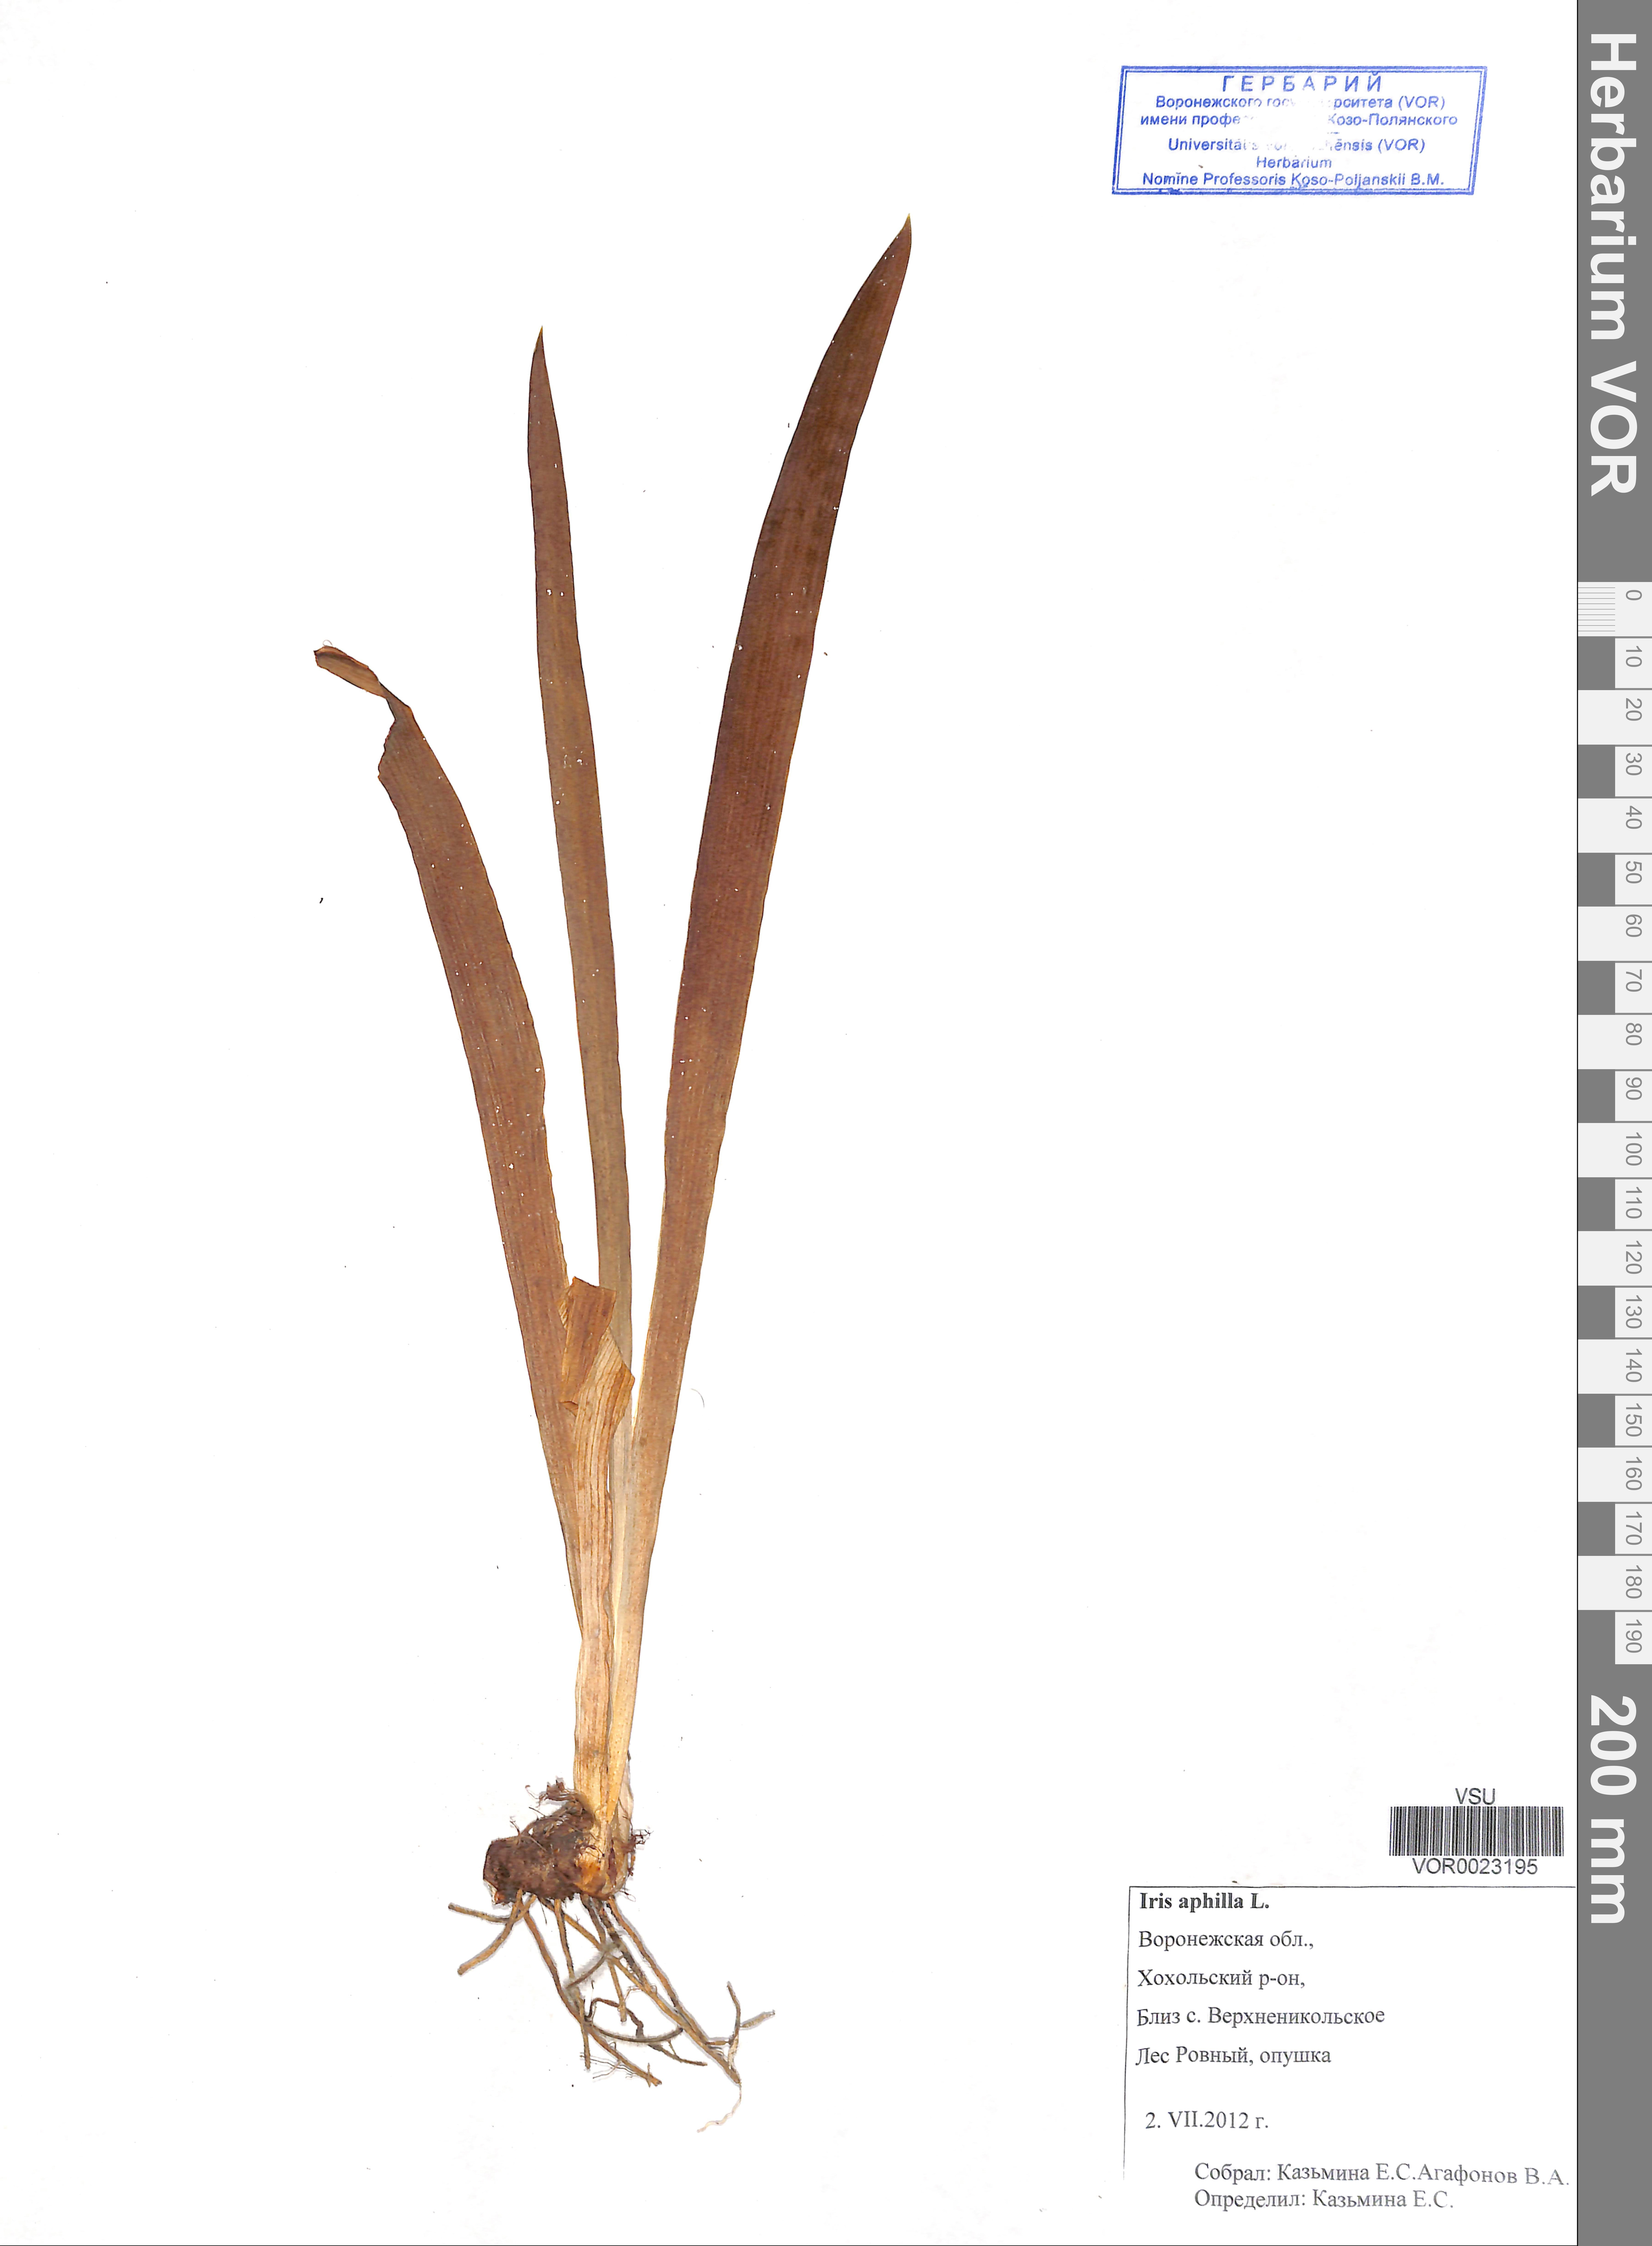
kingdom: Plantae
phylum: Tracheophyta
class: Liliopsida
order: Asparagales
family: Iridaceae
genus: Iris
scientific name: Iris aphylla
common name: Stool iris
